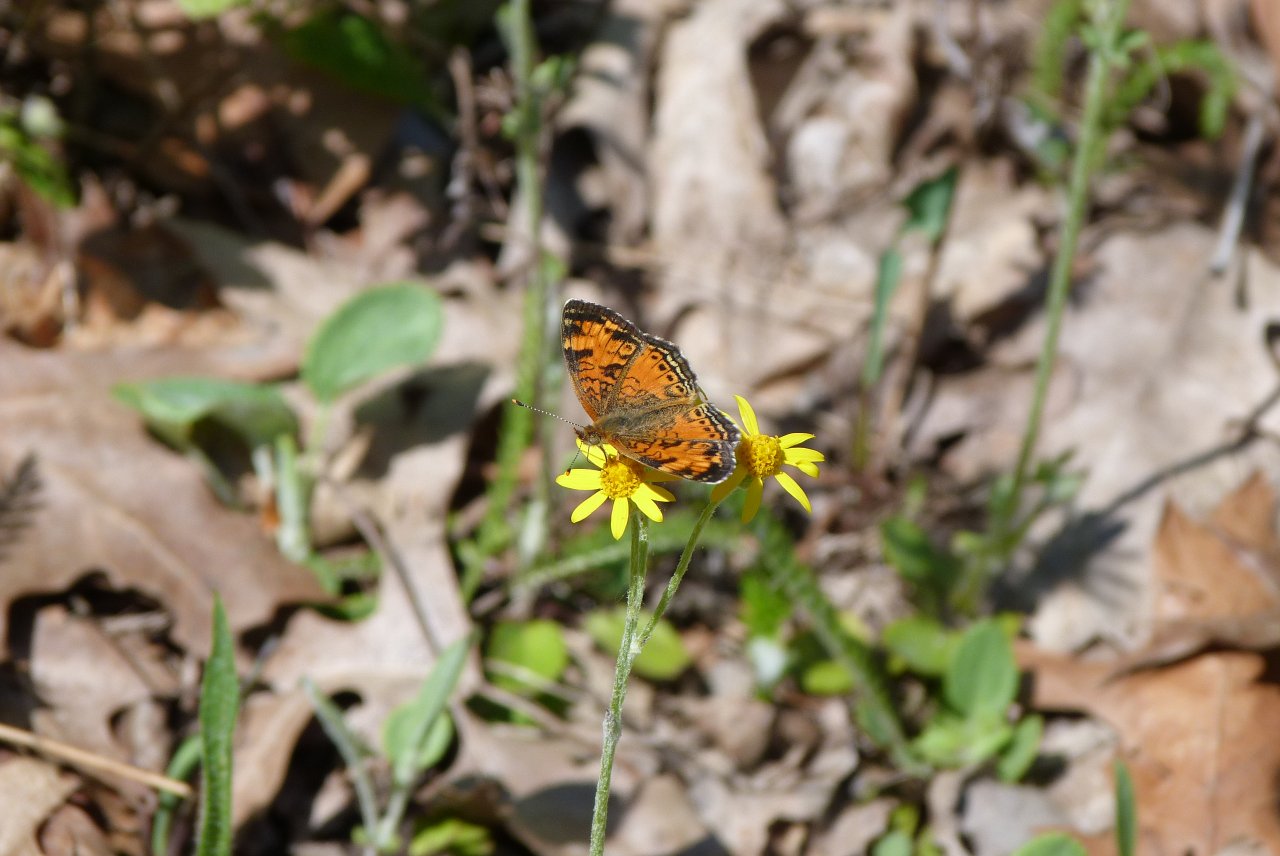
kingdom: Animalia
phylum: Arthropoda
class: Insecta
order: Lepidoptera
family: Nymphalidae
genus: Phyciodes
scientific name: Phyciodes tharos
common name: Northern Crescent
